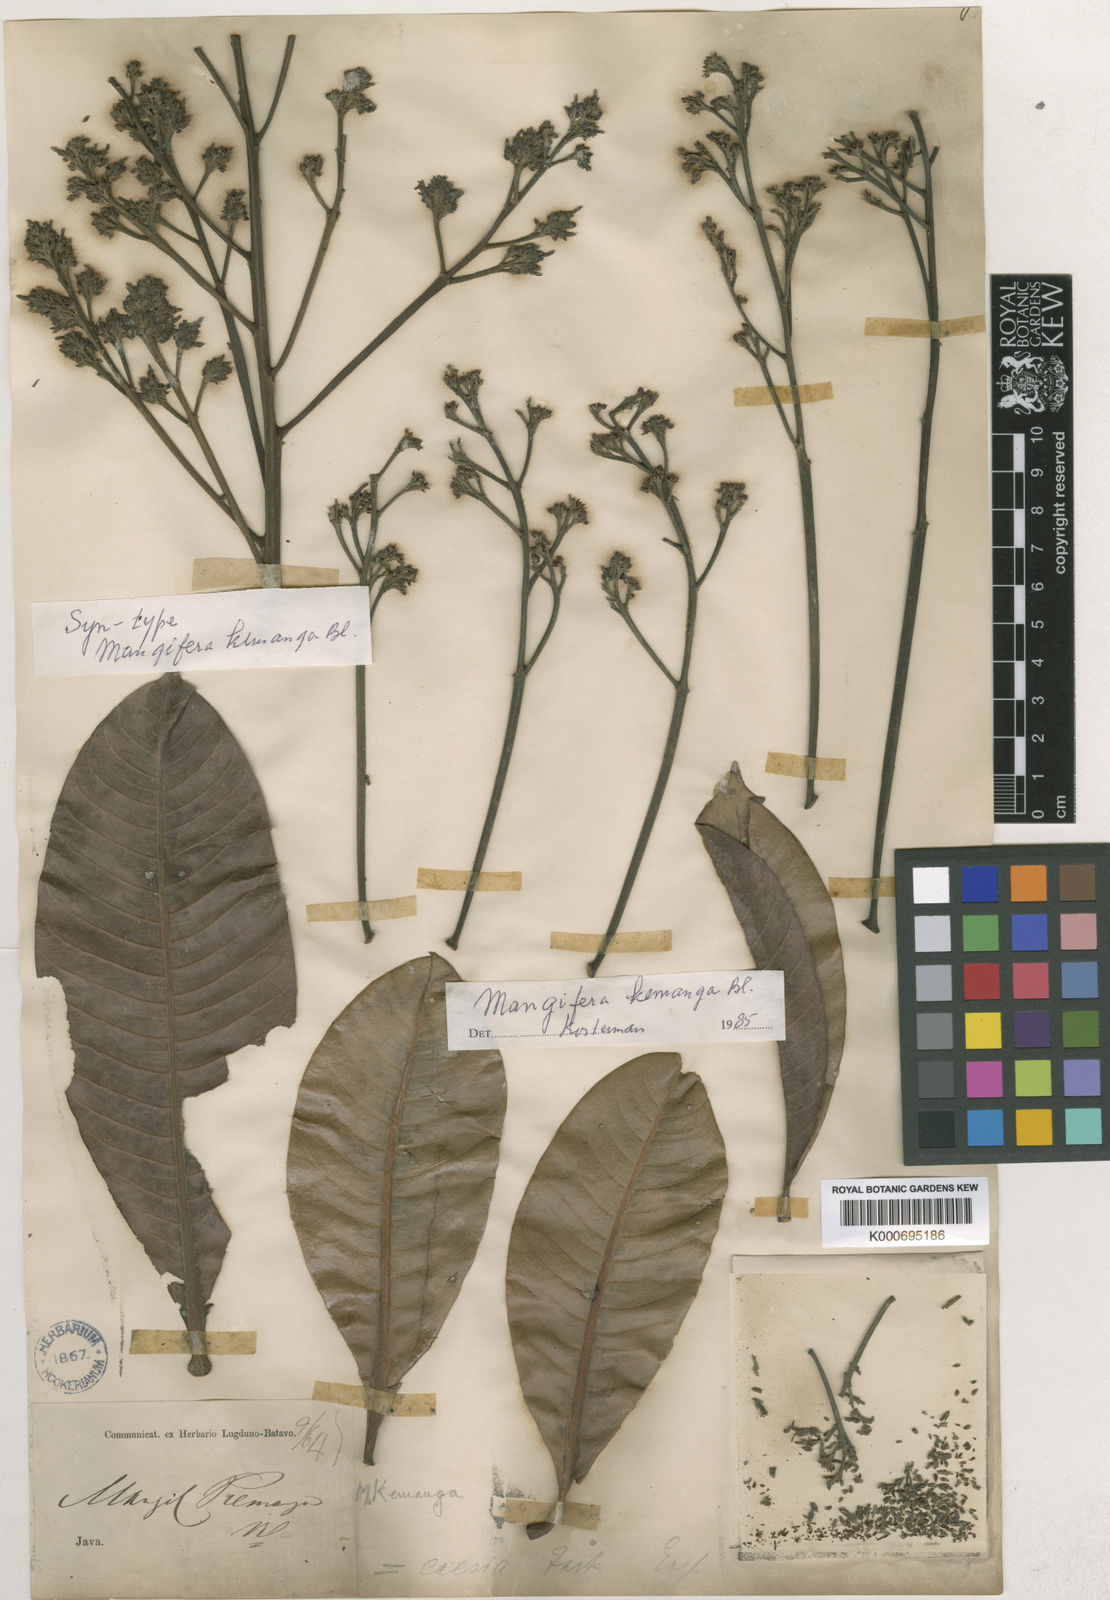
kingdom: Plantae
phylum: Tracheophyta
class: Magnoliopsida
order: Sapindales
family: Anacardiaceae
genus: Mangifera
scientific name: Mangifera caesia
